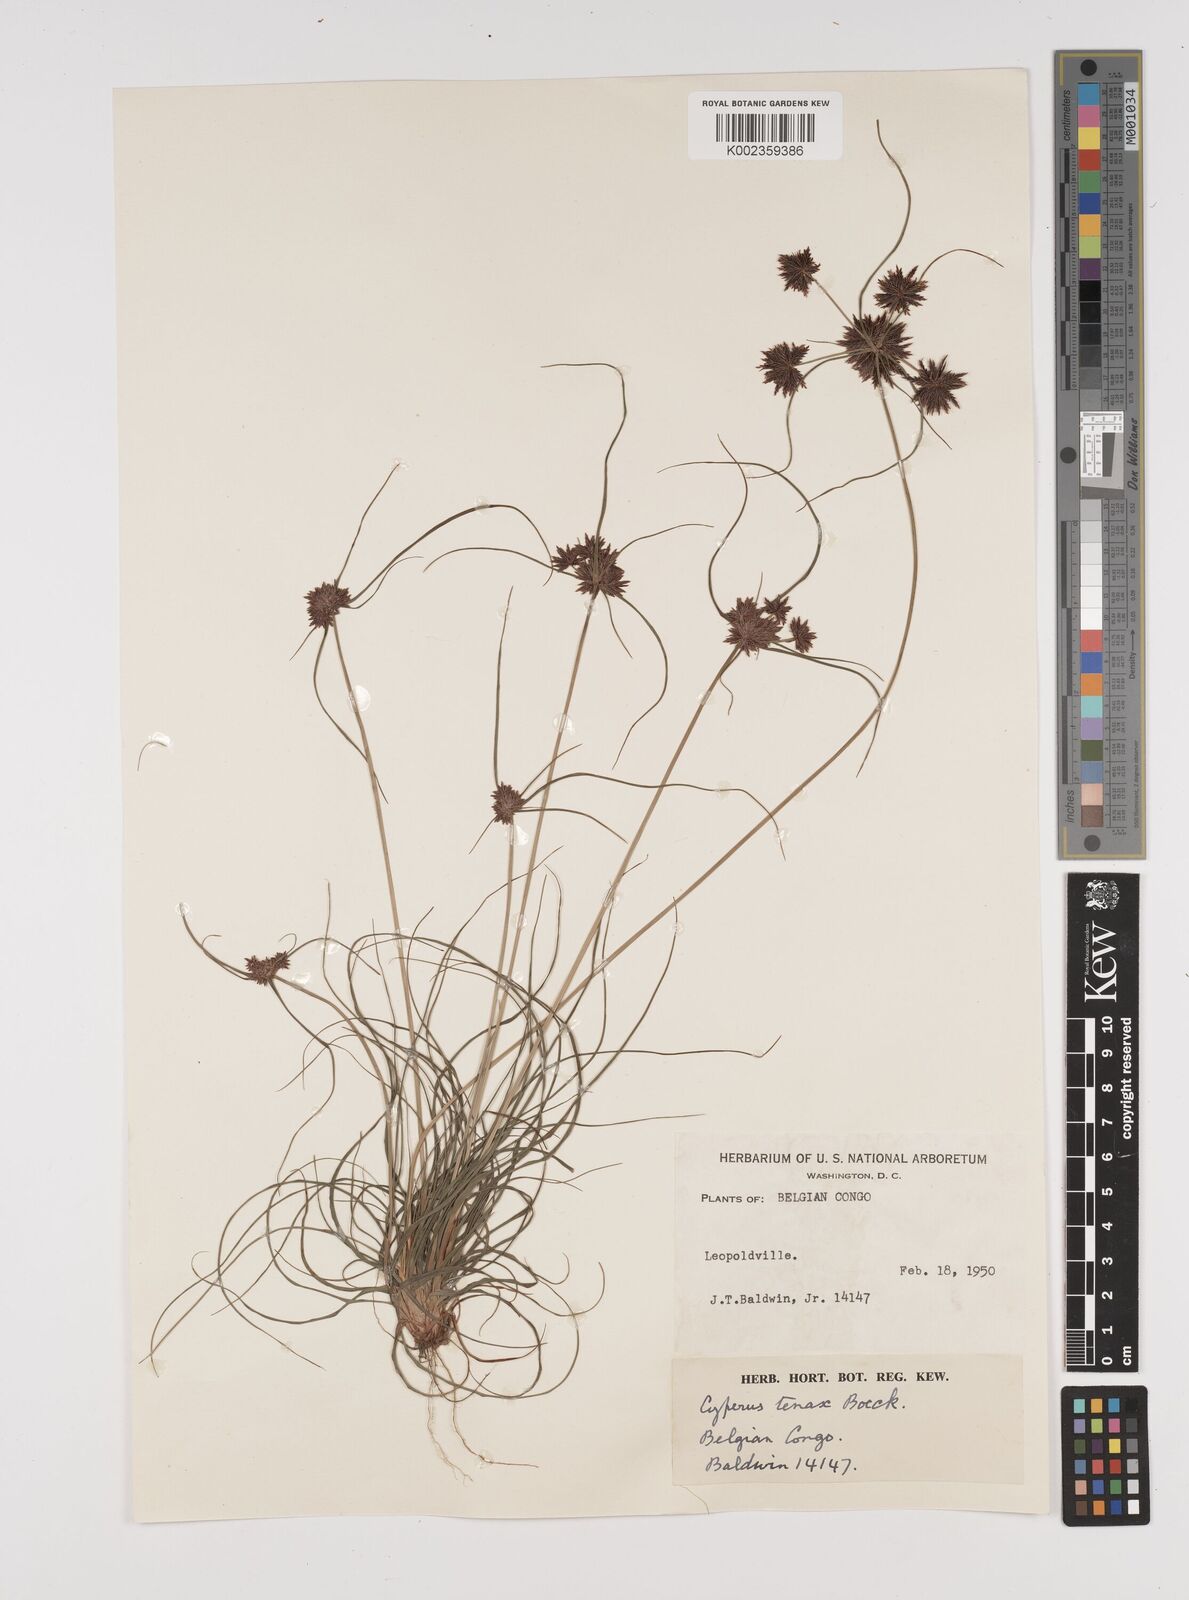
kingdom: Plantae
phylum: Tracheophyta
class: Liliopsida
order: Poales
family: Cyperaceae
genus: Cyperus
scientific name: Cyperus tenax
